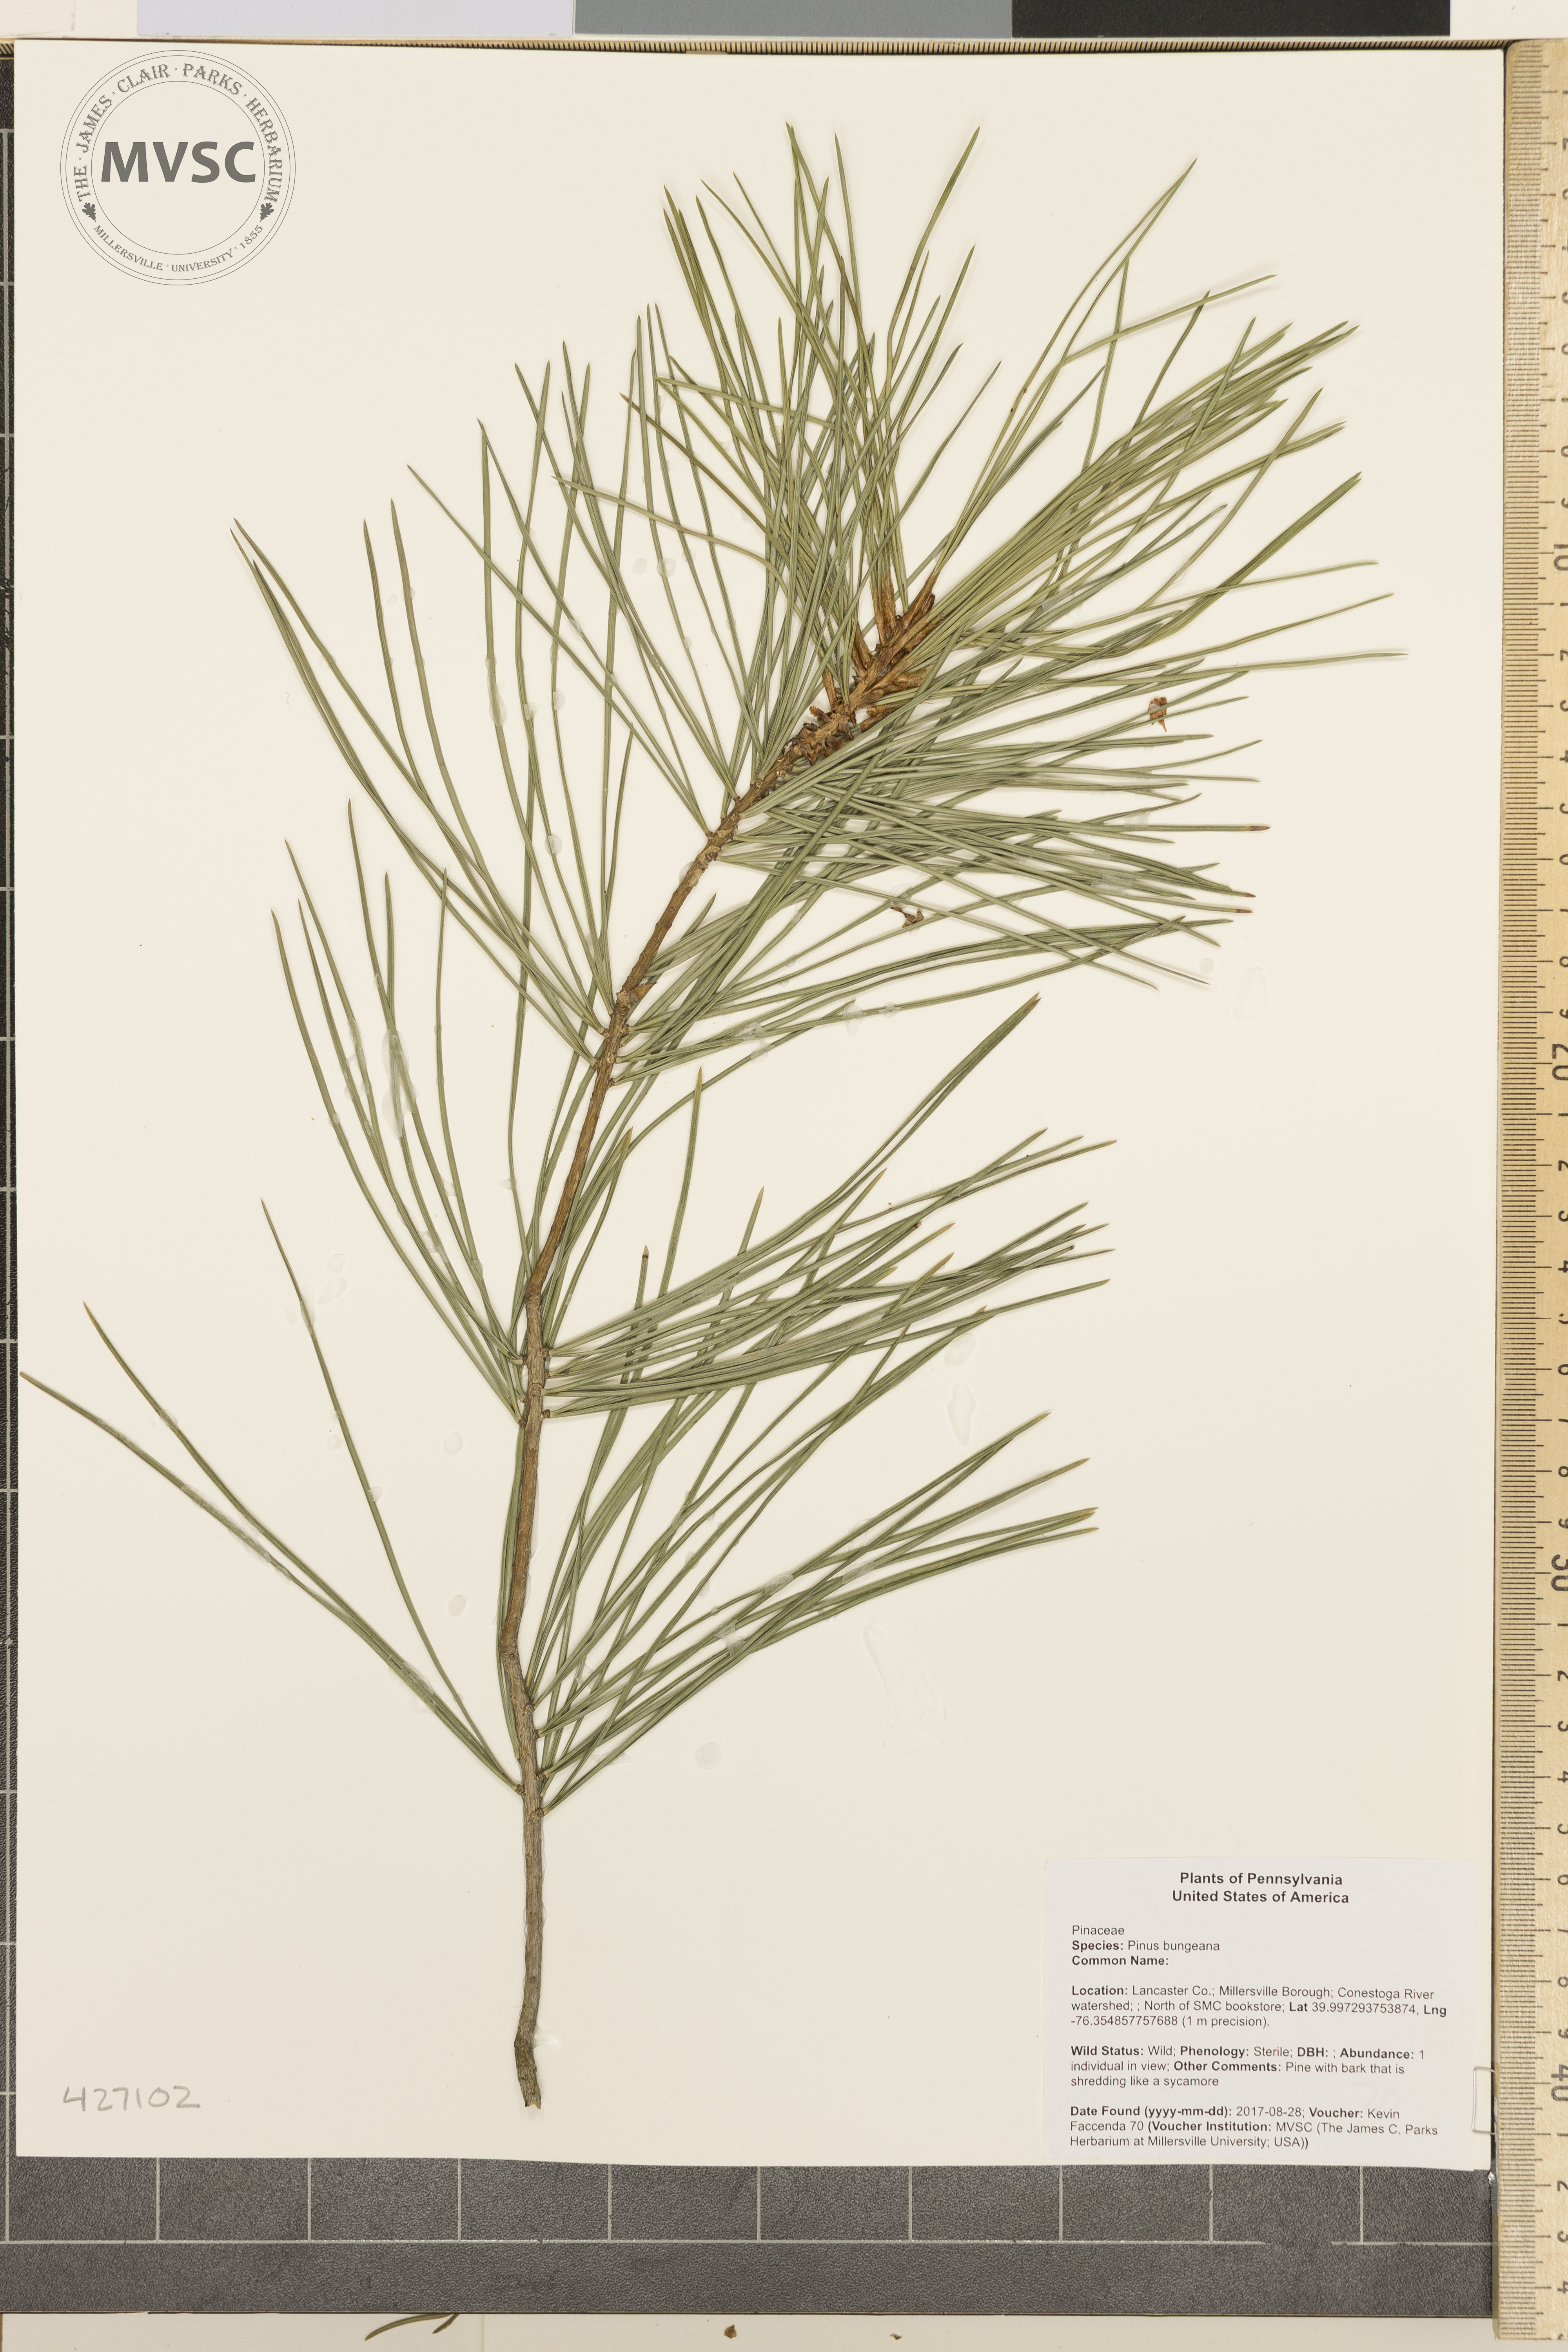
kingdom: Plantae
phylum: Tracheophyta
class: Pinopsida
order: Pinales
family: Pinaceae
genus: Pinus
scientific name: Pinus bungeana
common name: Lace-bark pine
